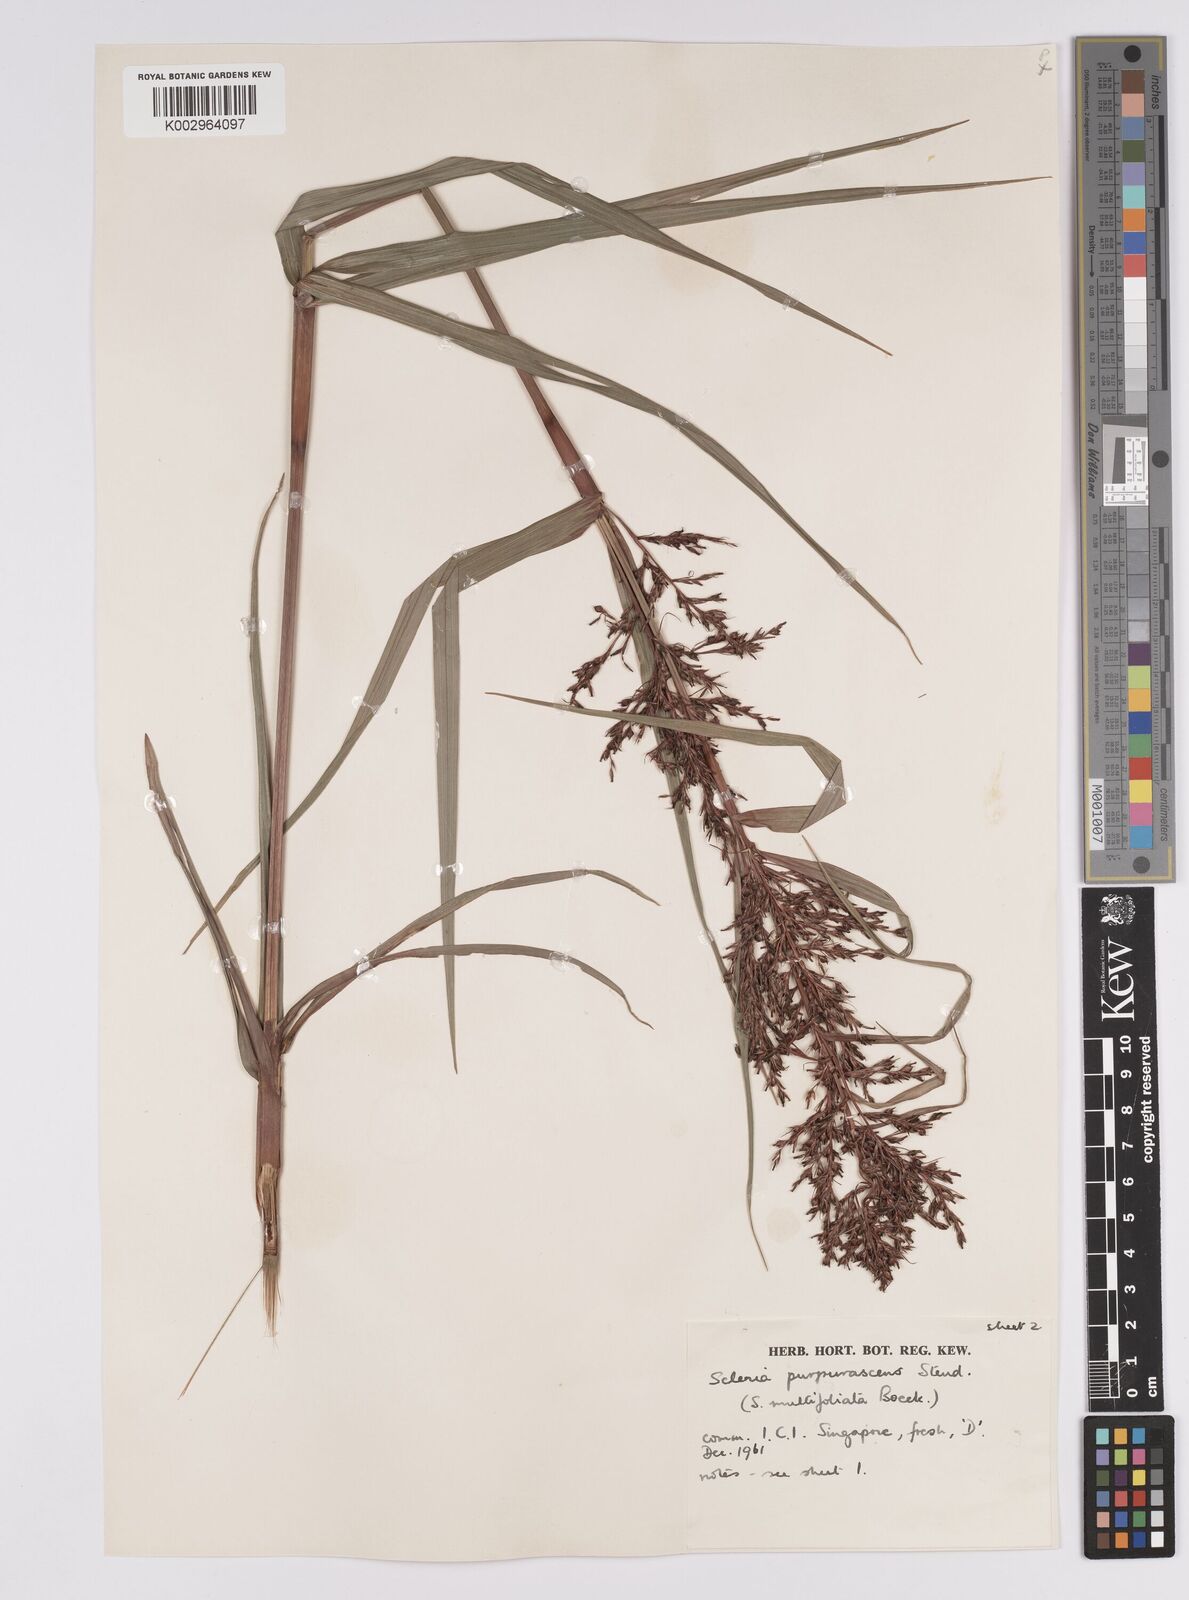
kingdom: Plantae
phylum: Tracheophyta
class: Liliopsida
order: Poales
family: Cyperaceae
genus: Scleria
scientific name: Scleria purpurascens
